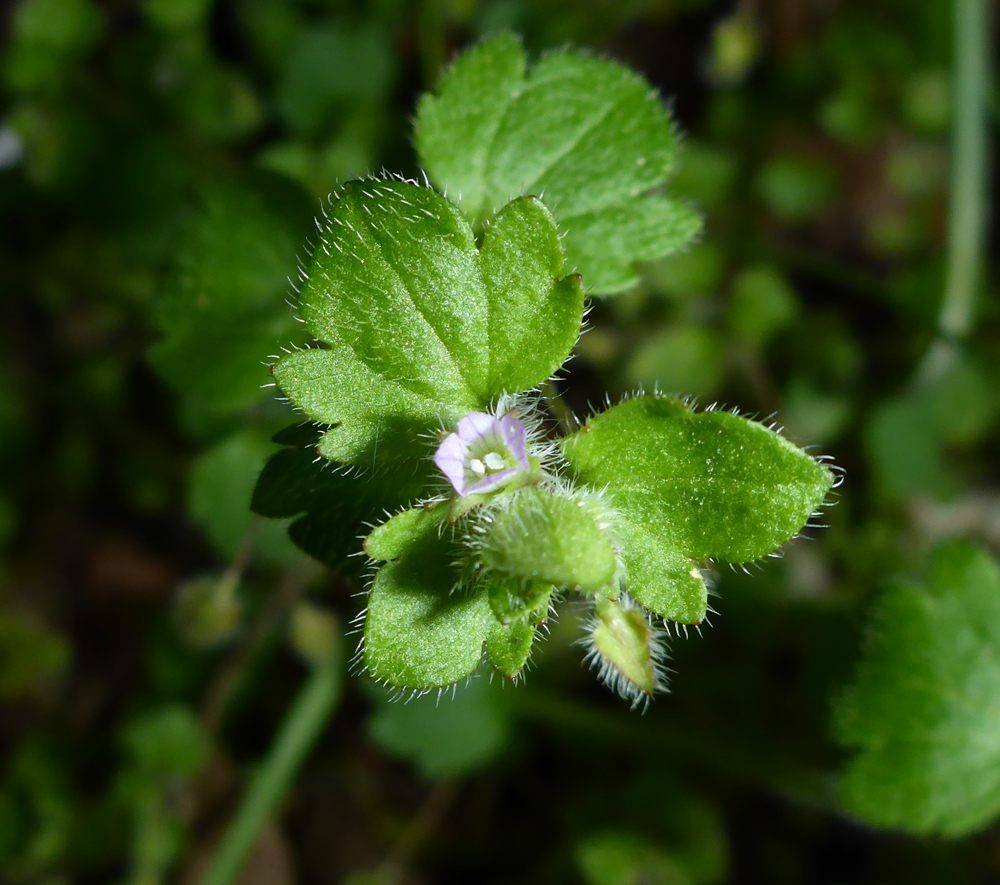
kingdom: Plantae
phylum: Tracheophyta
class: Magnoliopsida
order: Lamiales
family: Plantaginaceae
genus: Veronica
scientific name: Veronica sublobata
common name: False ivy-leaved speedwell
